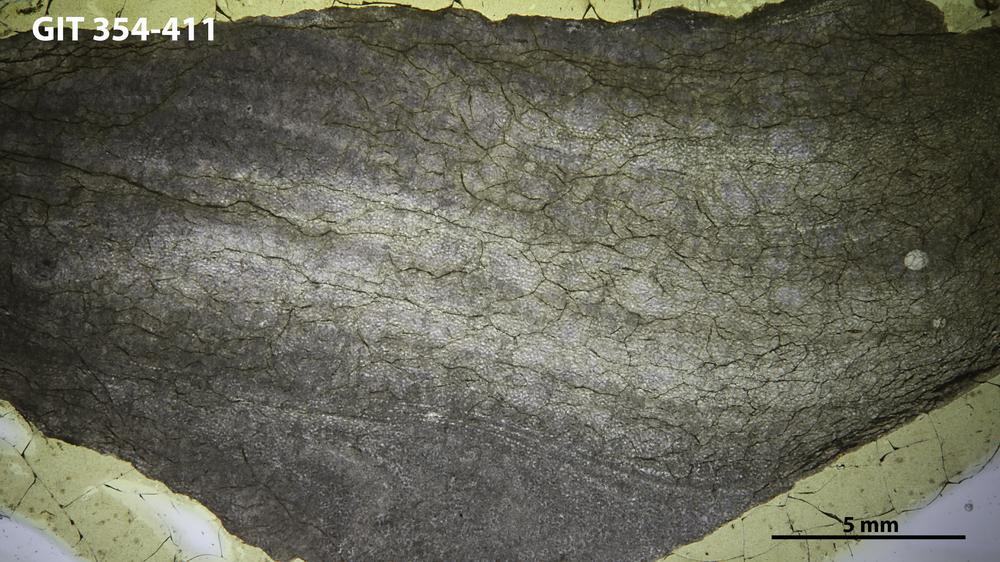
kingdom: Animalia
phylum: Porifera
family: Ecclimadictyidae
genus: Ecclimadictyon
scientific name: Ecclimadictyon Clathrodictyon microvesiculosum
